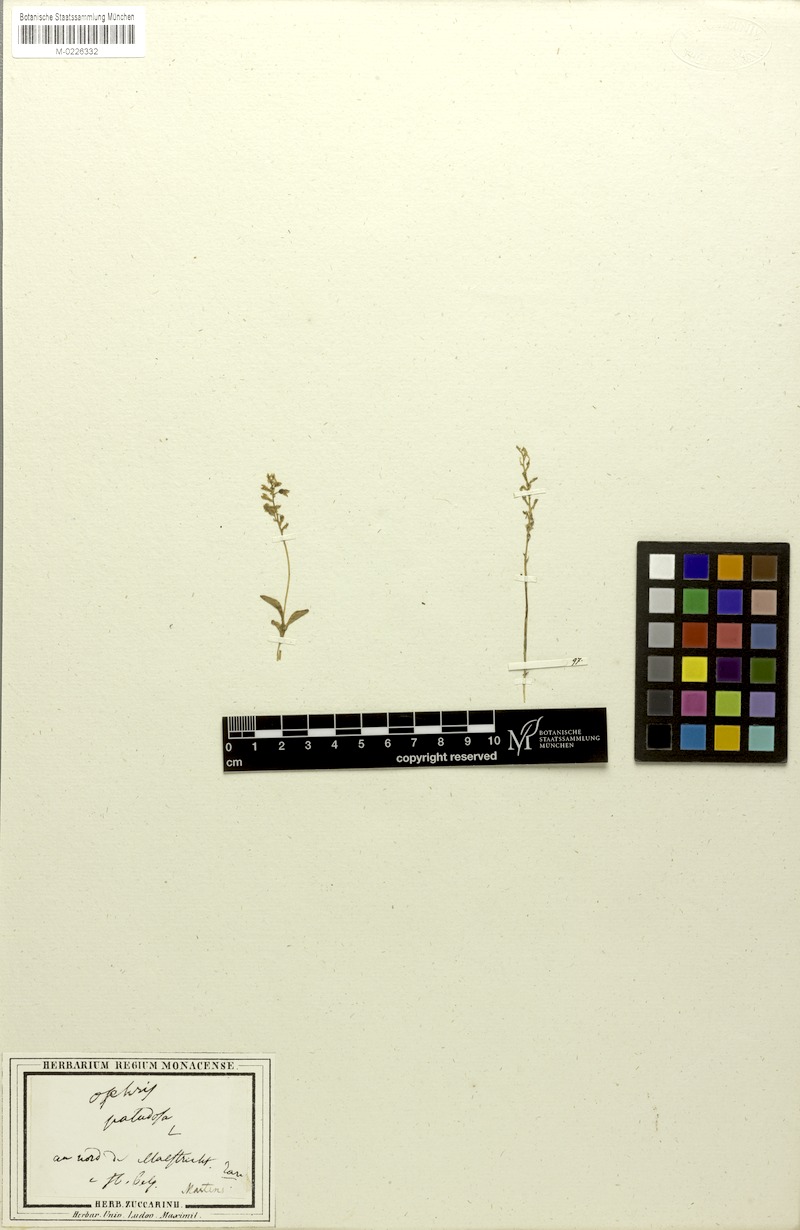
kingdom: Plantae
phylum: Tracheophyta
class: Liliopsida
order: Asparagales
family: Orchidaceae
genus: Hammarbya
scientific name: Hammarbya paludosa
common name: Bog orchid
